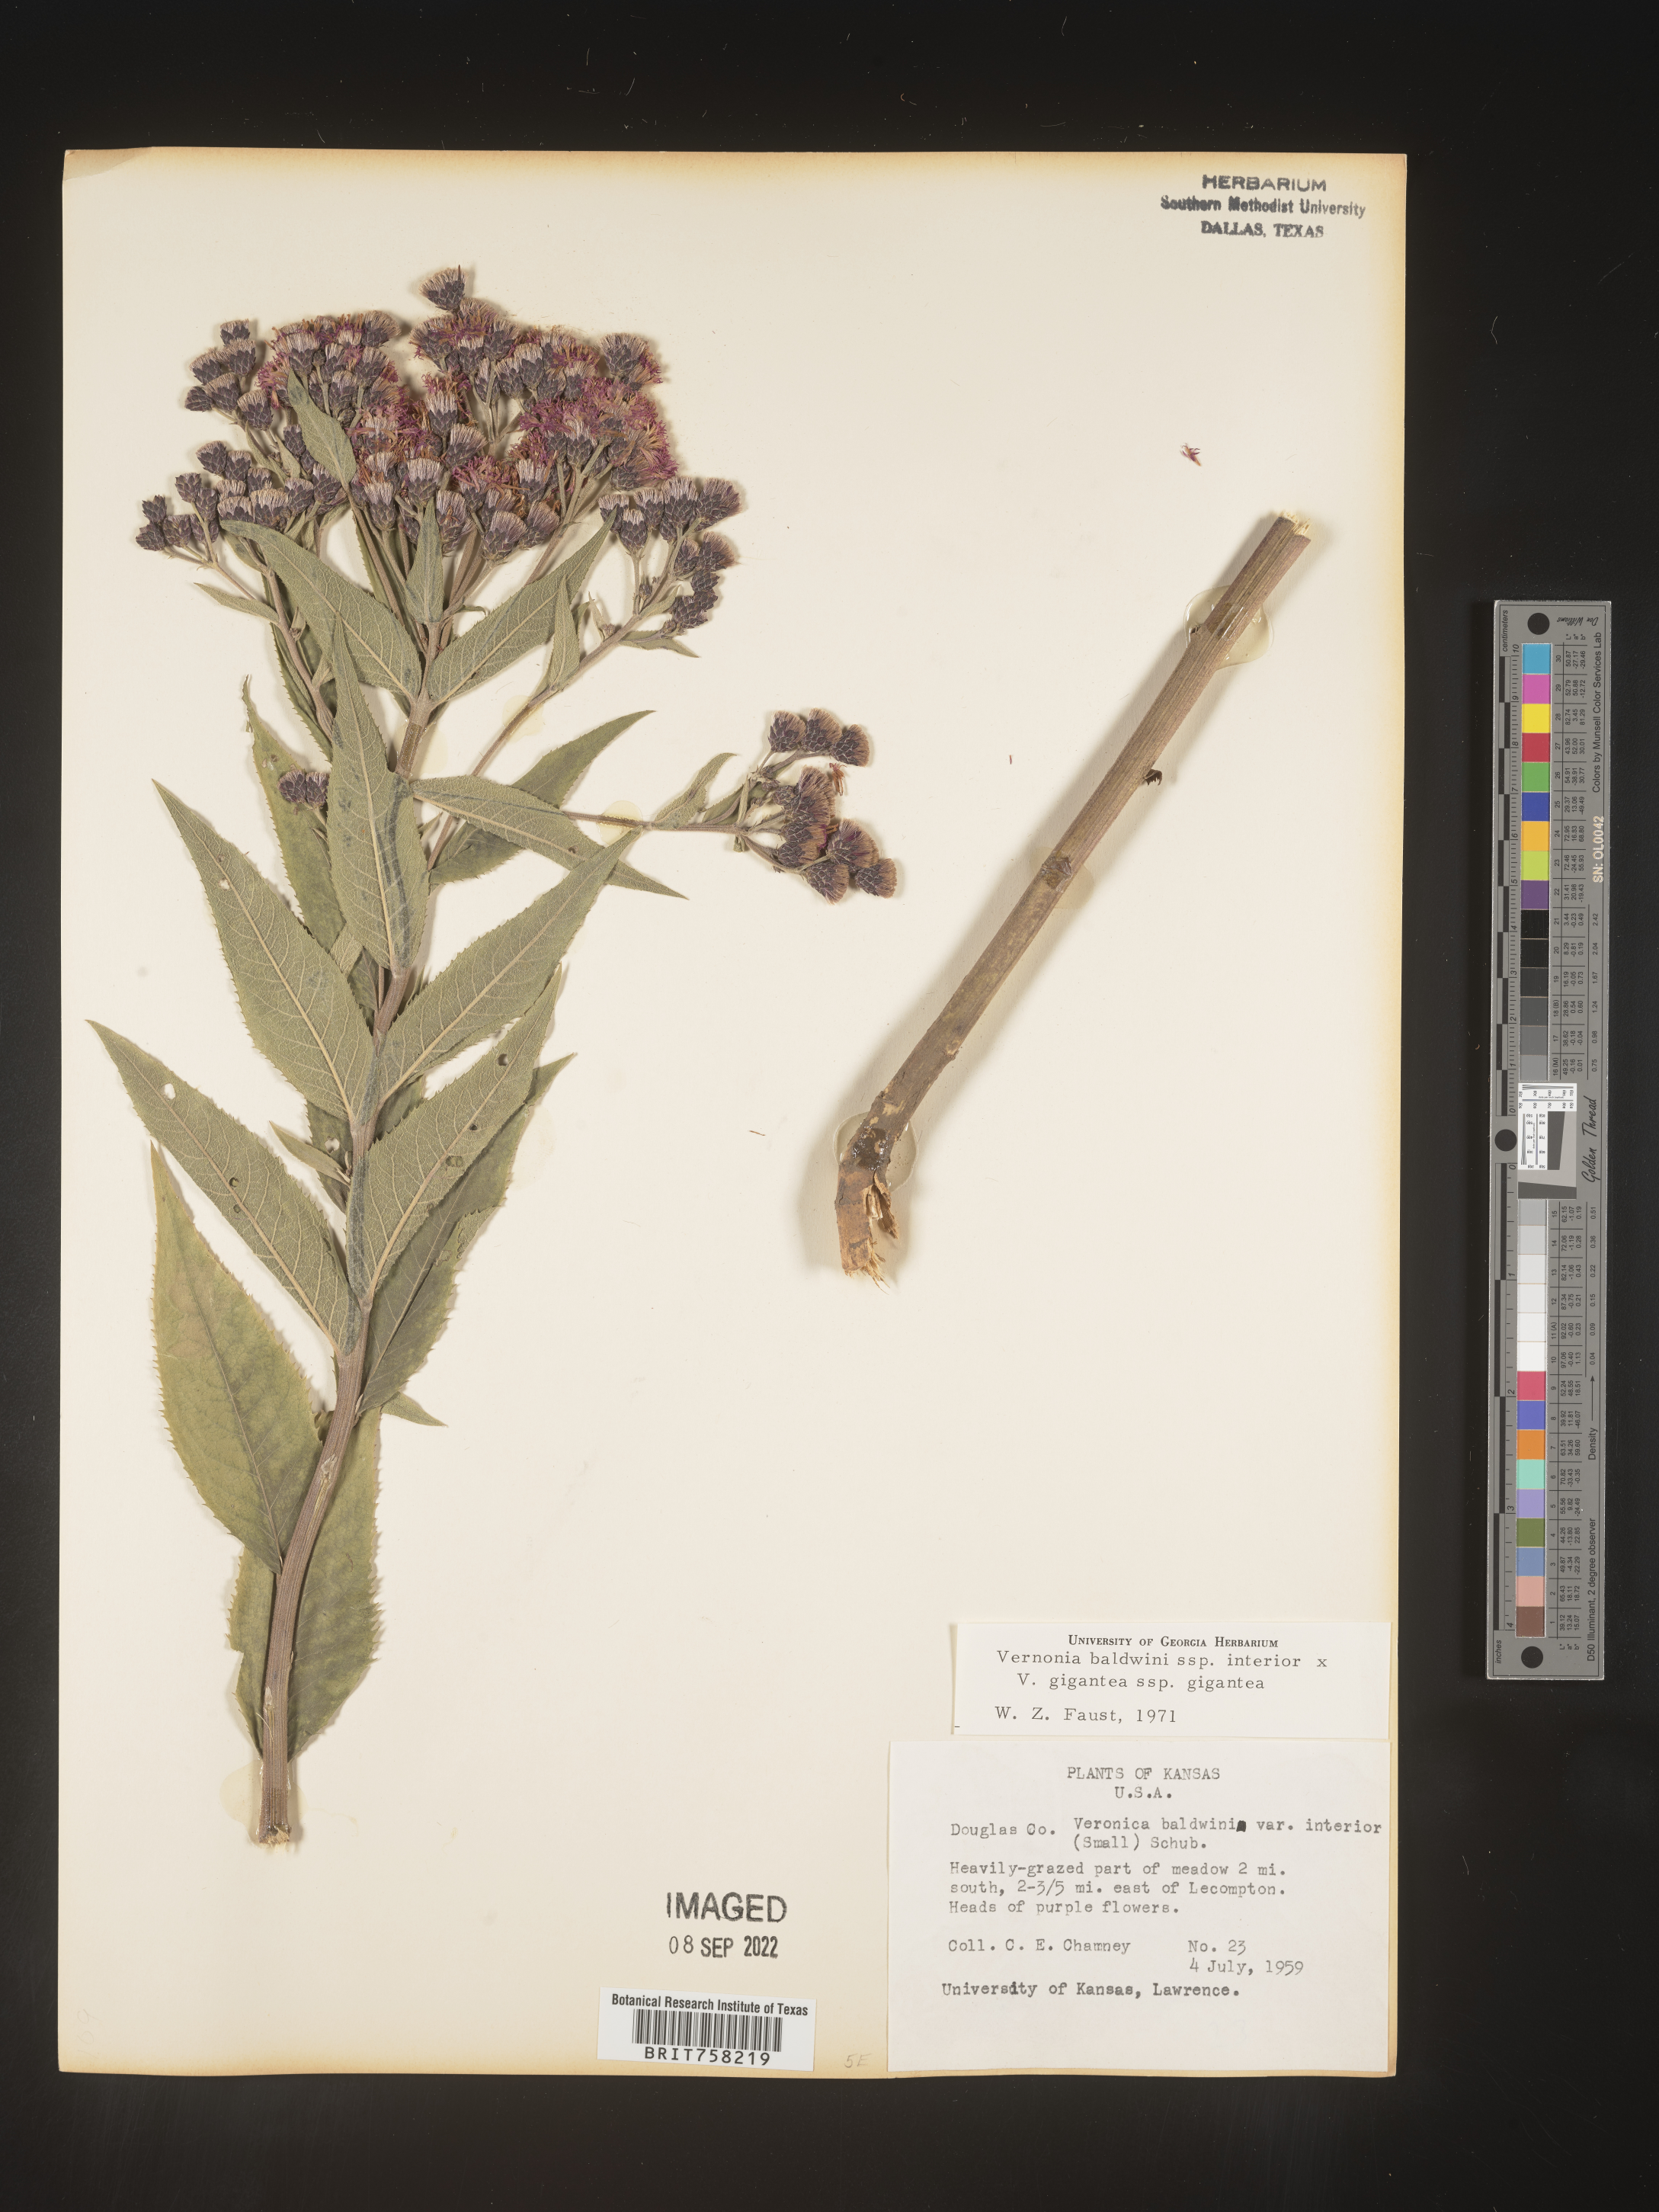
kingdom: Plantae
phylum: Tracheophyta
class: Magnoliopsida
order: Asterales
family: Asteraceae
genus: Vernonia
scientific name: Vernonia baldwinii
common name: Western ironweed
